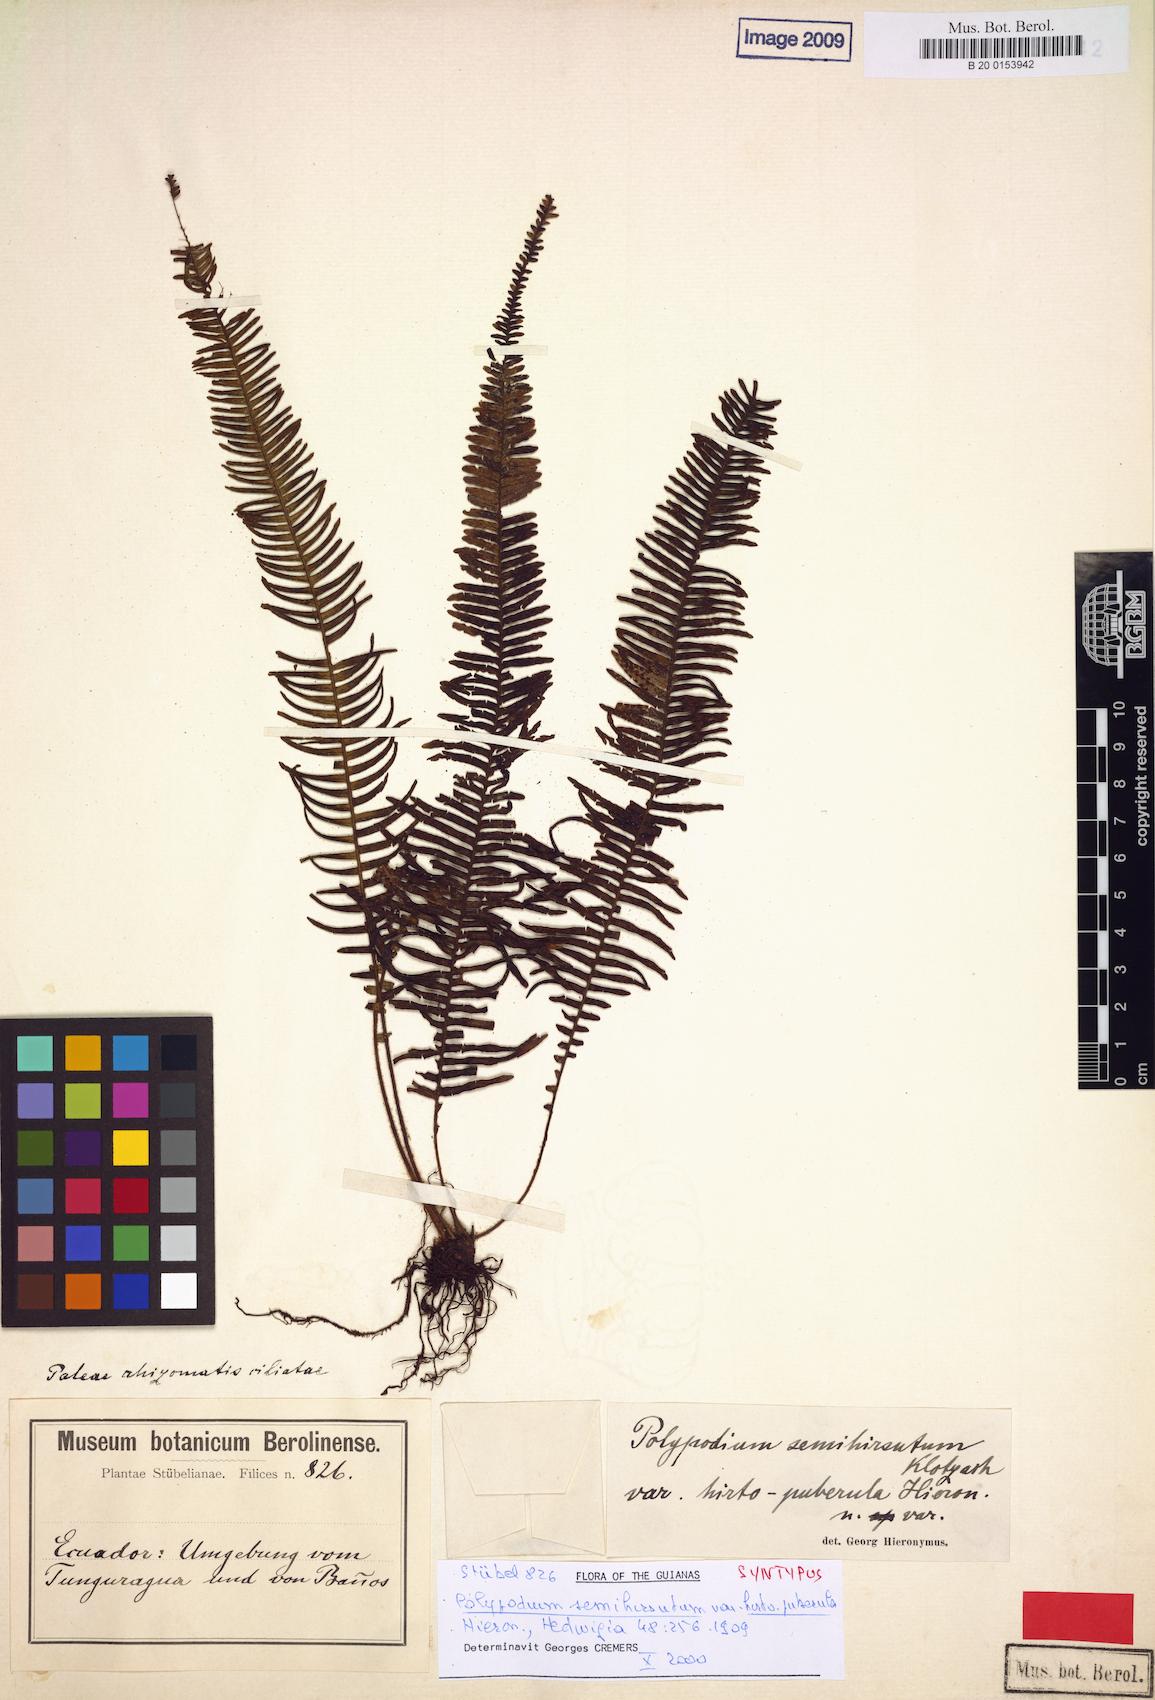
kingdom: Plantae
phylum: Tracheophyta
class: Polypodiopsida
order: Polypodiales
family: Polypodiaceae
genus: Mycopteris
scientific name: Mycopteris alsopteris
